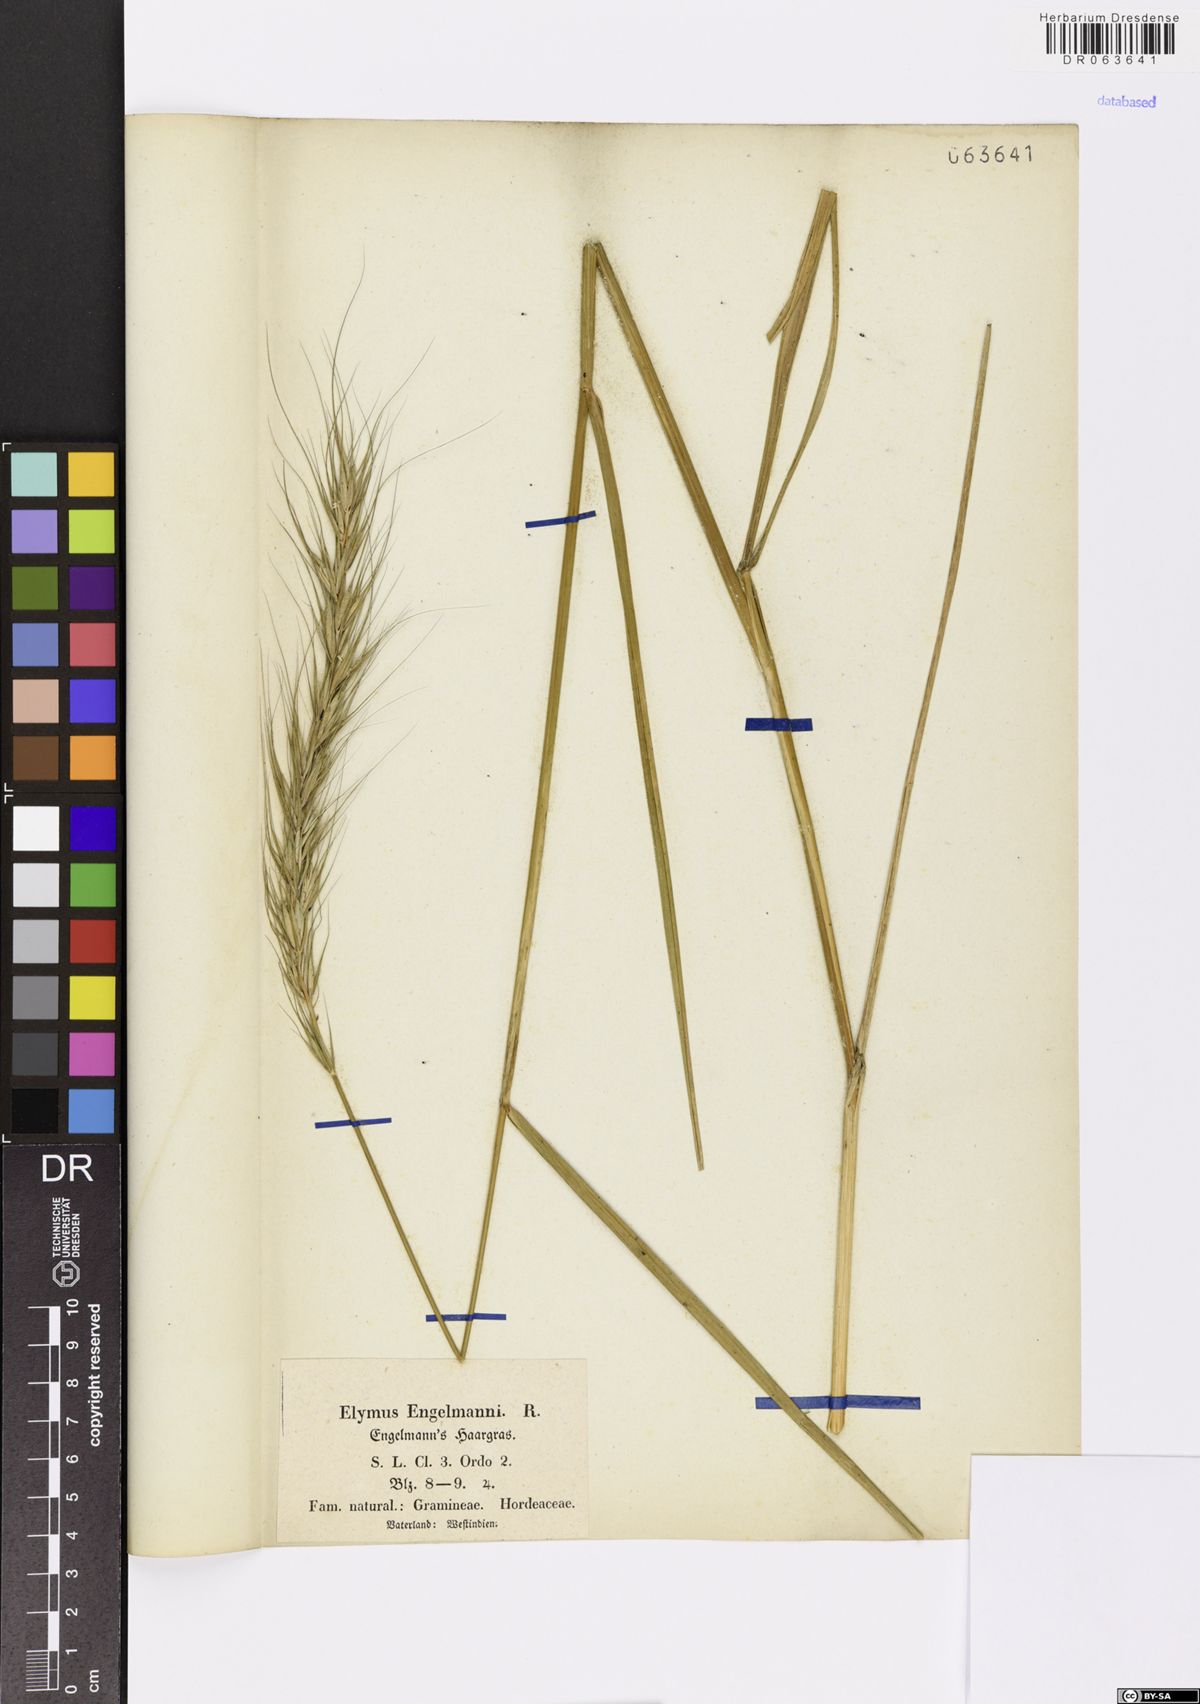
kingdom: Plantae
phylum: Tracheophyta
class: Liliopsida
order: Poales
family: Poaceae
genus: Elymus
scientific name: Elymus
